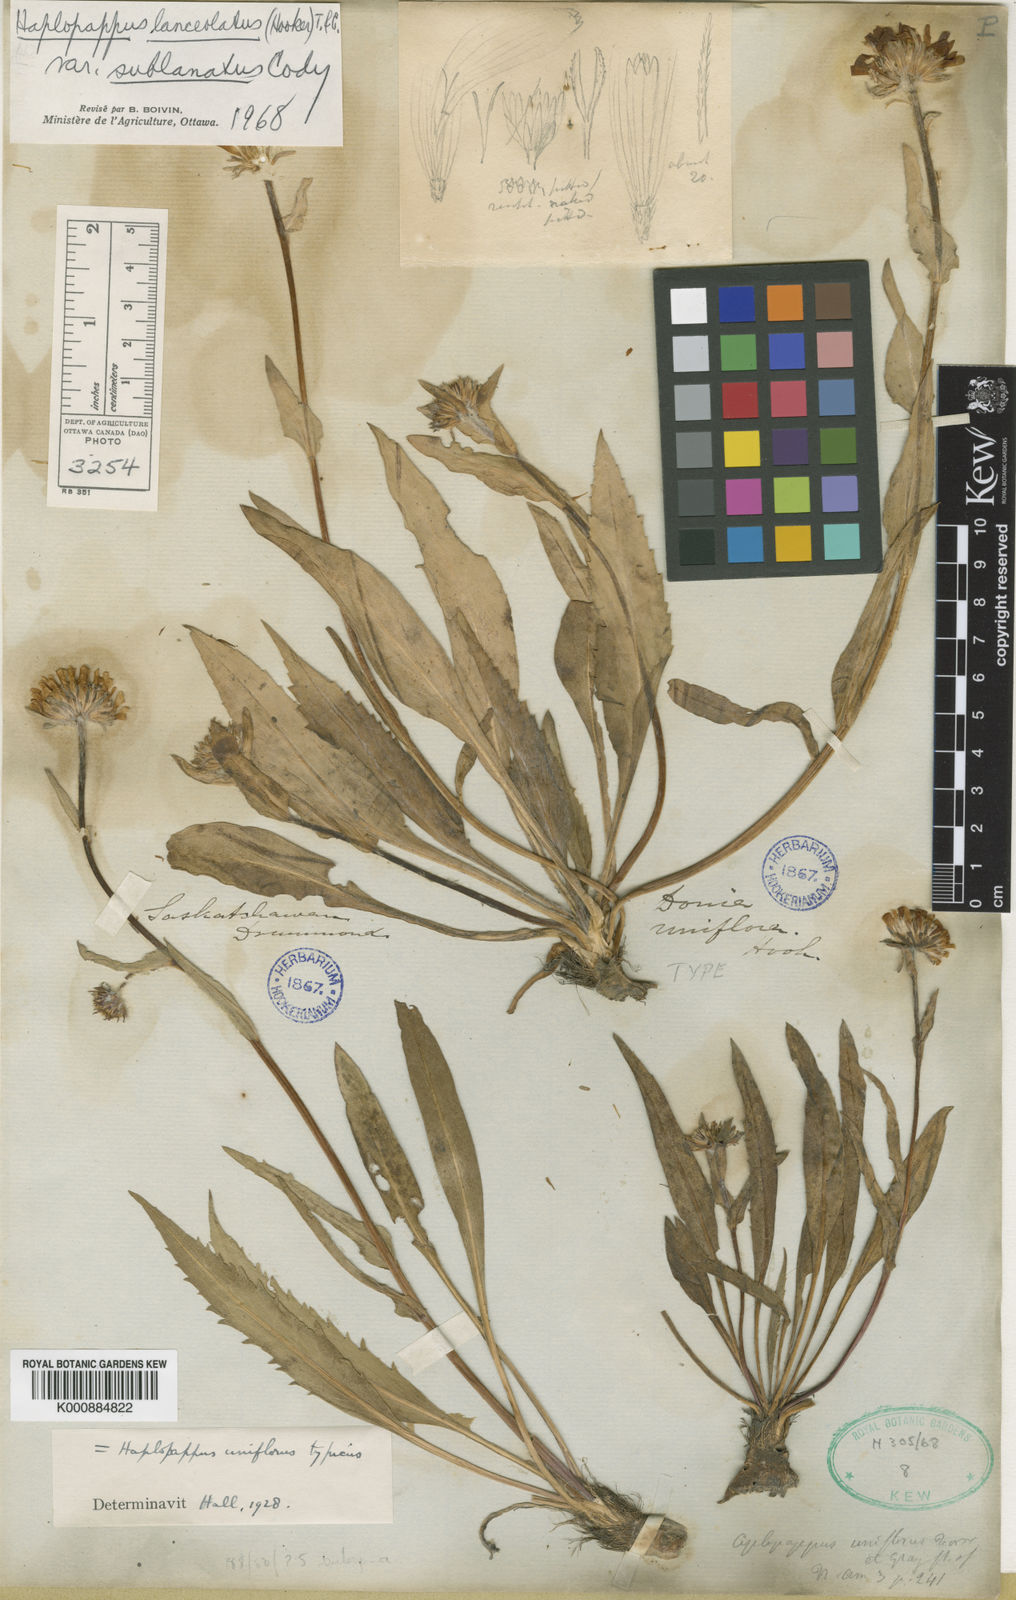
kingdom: Plantae
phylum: Tracheophyta
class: Magnoliopsida
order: Asterales
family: Asteraceae
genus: Pyrrocoma
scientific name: Pyrrocoma uniflora
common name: Plantain goldenweed
